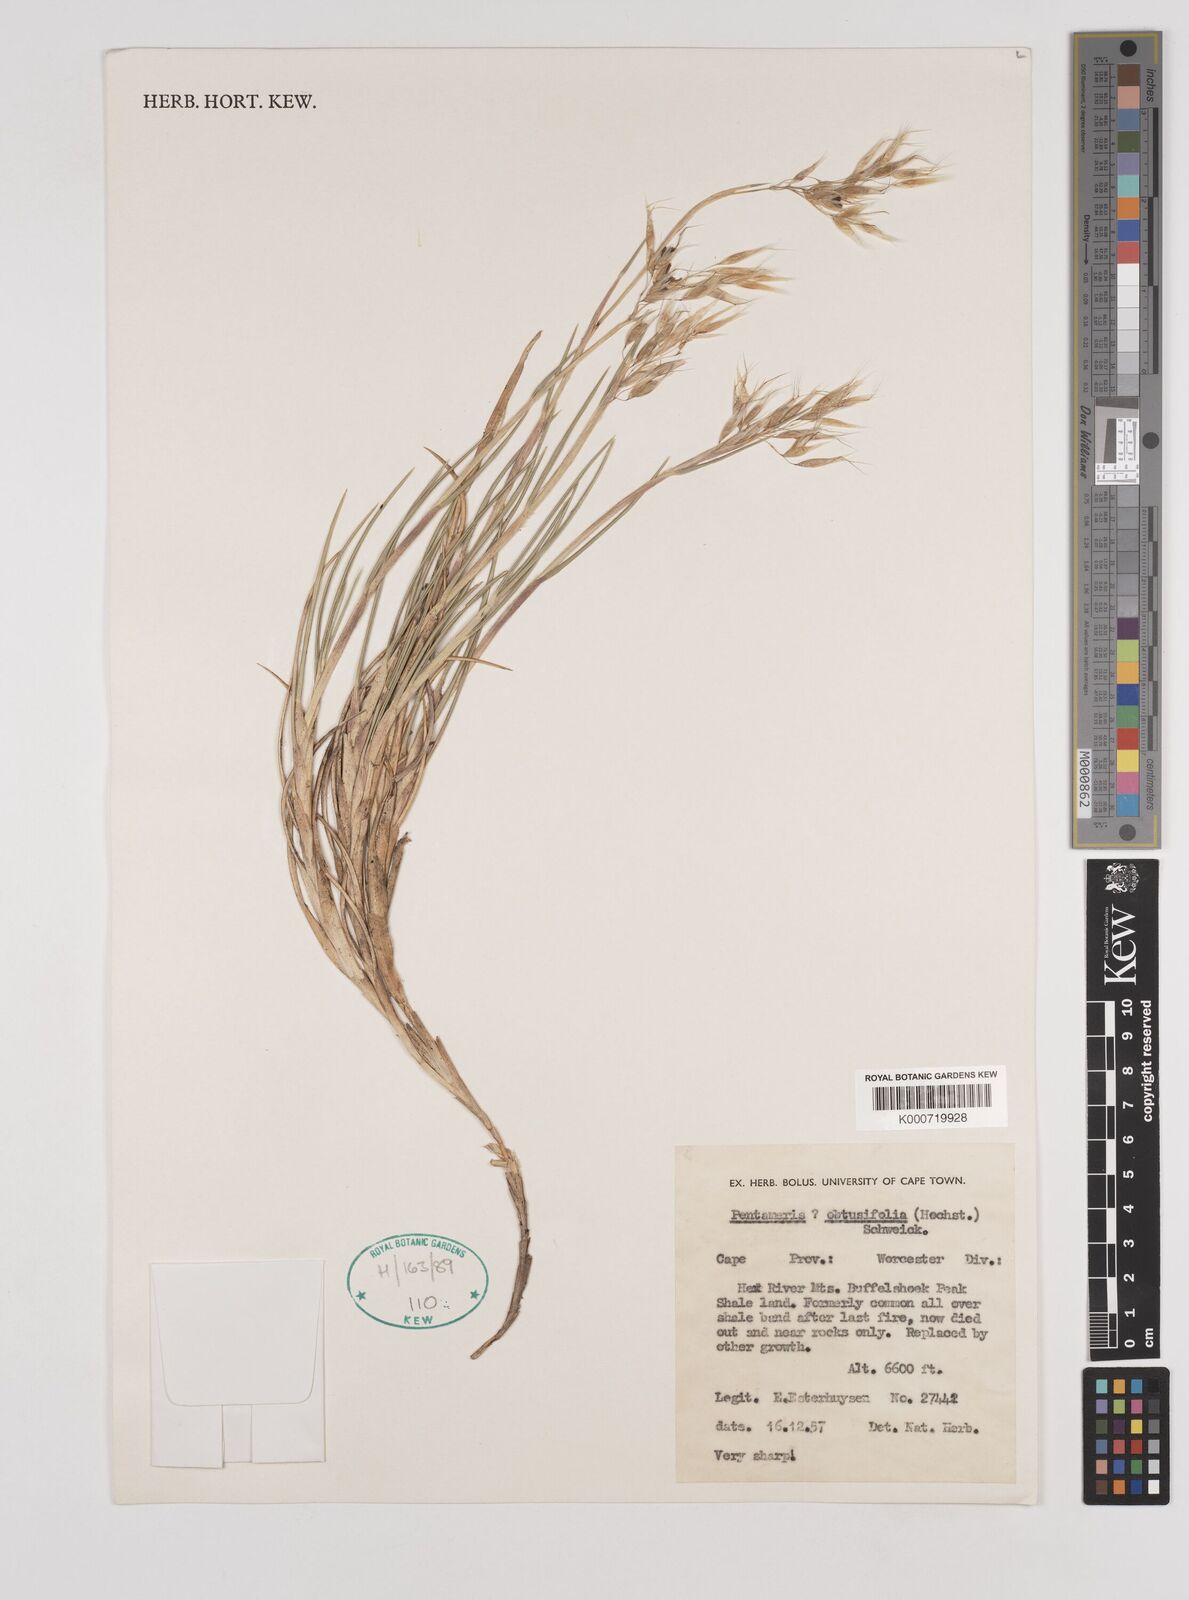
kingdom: Plantae
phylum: Tracheophyta
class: Liliopsida
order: Poales
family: Poaceae
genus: Pentameris
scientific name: Pentameris dregeana
